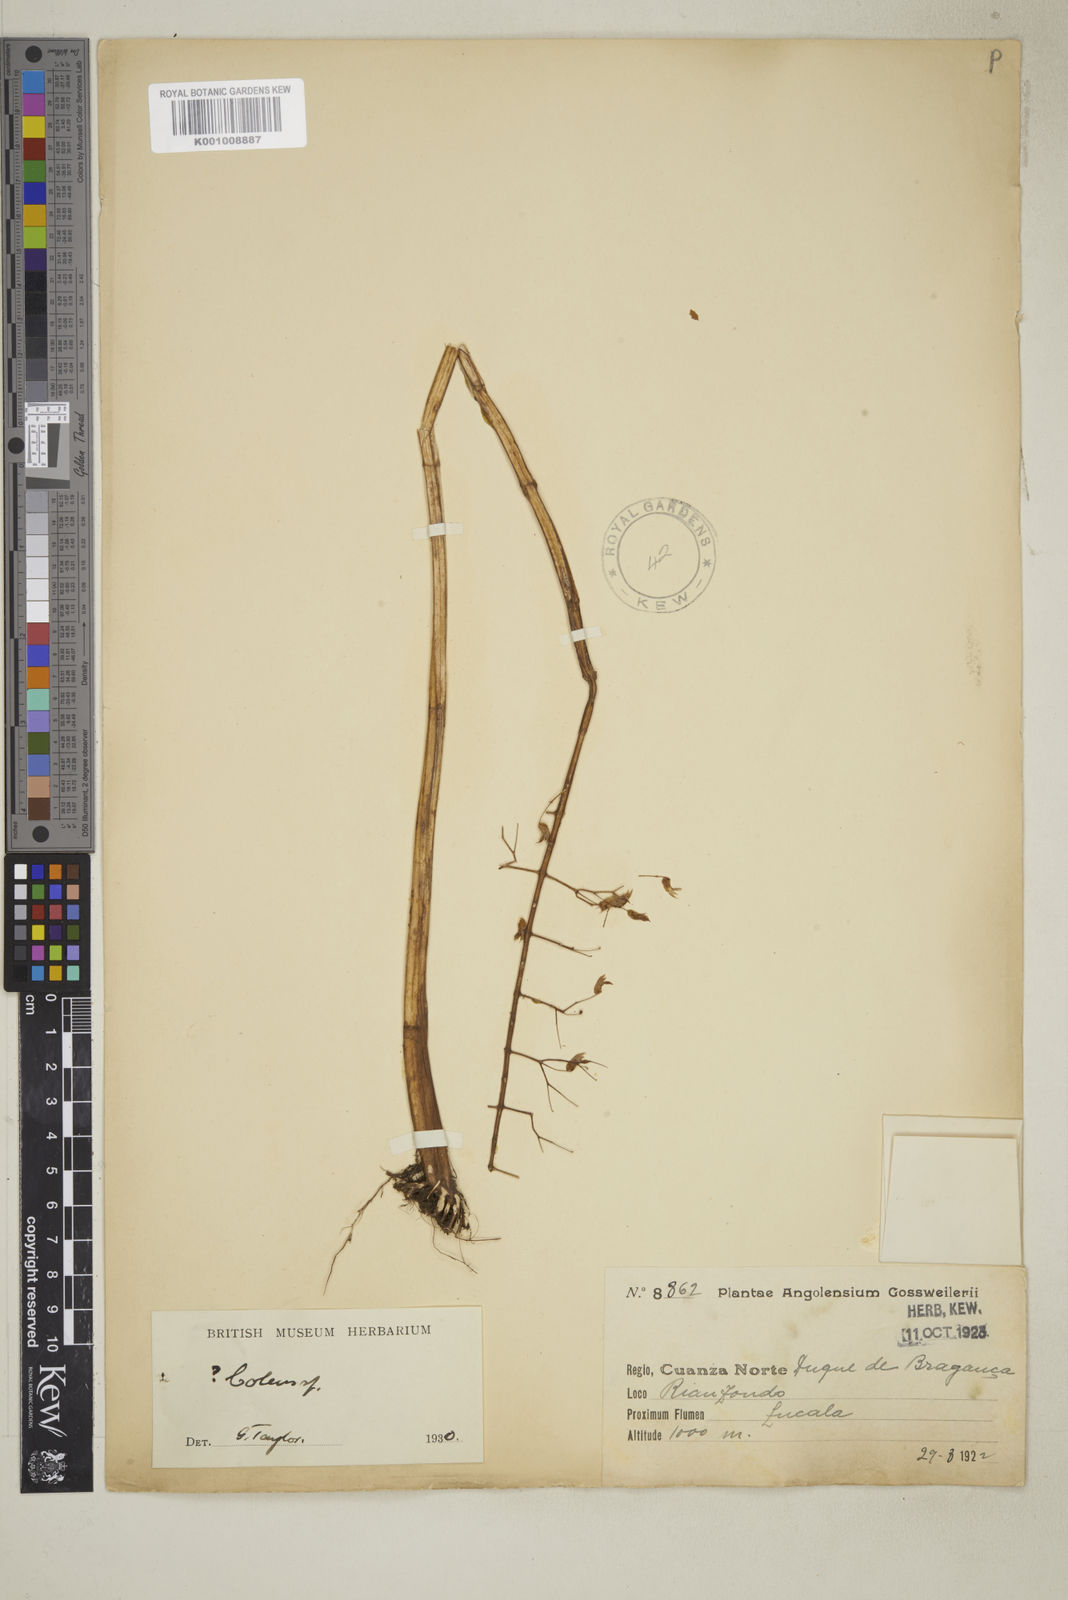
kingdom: Plantae
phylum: Tracheophyta
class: Magnoliopsida
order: Lamiales
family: Lamiaceae
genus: Plectranthus
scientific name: Plectranthus
